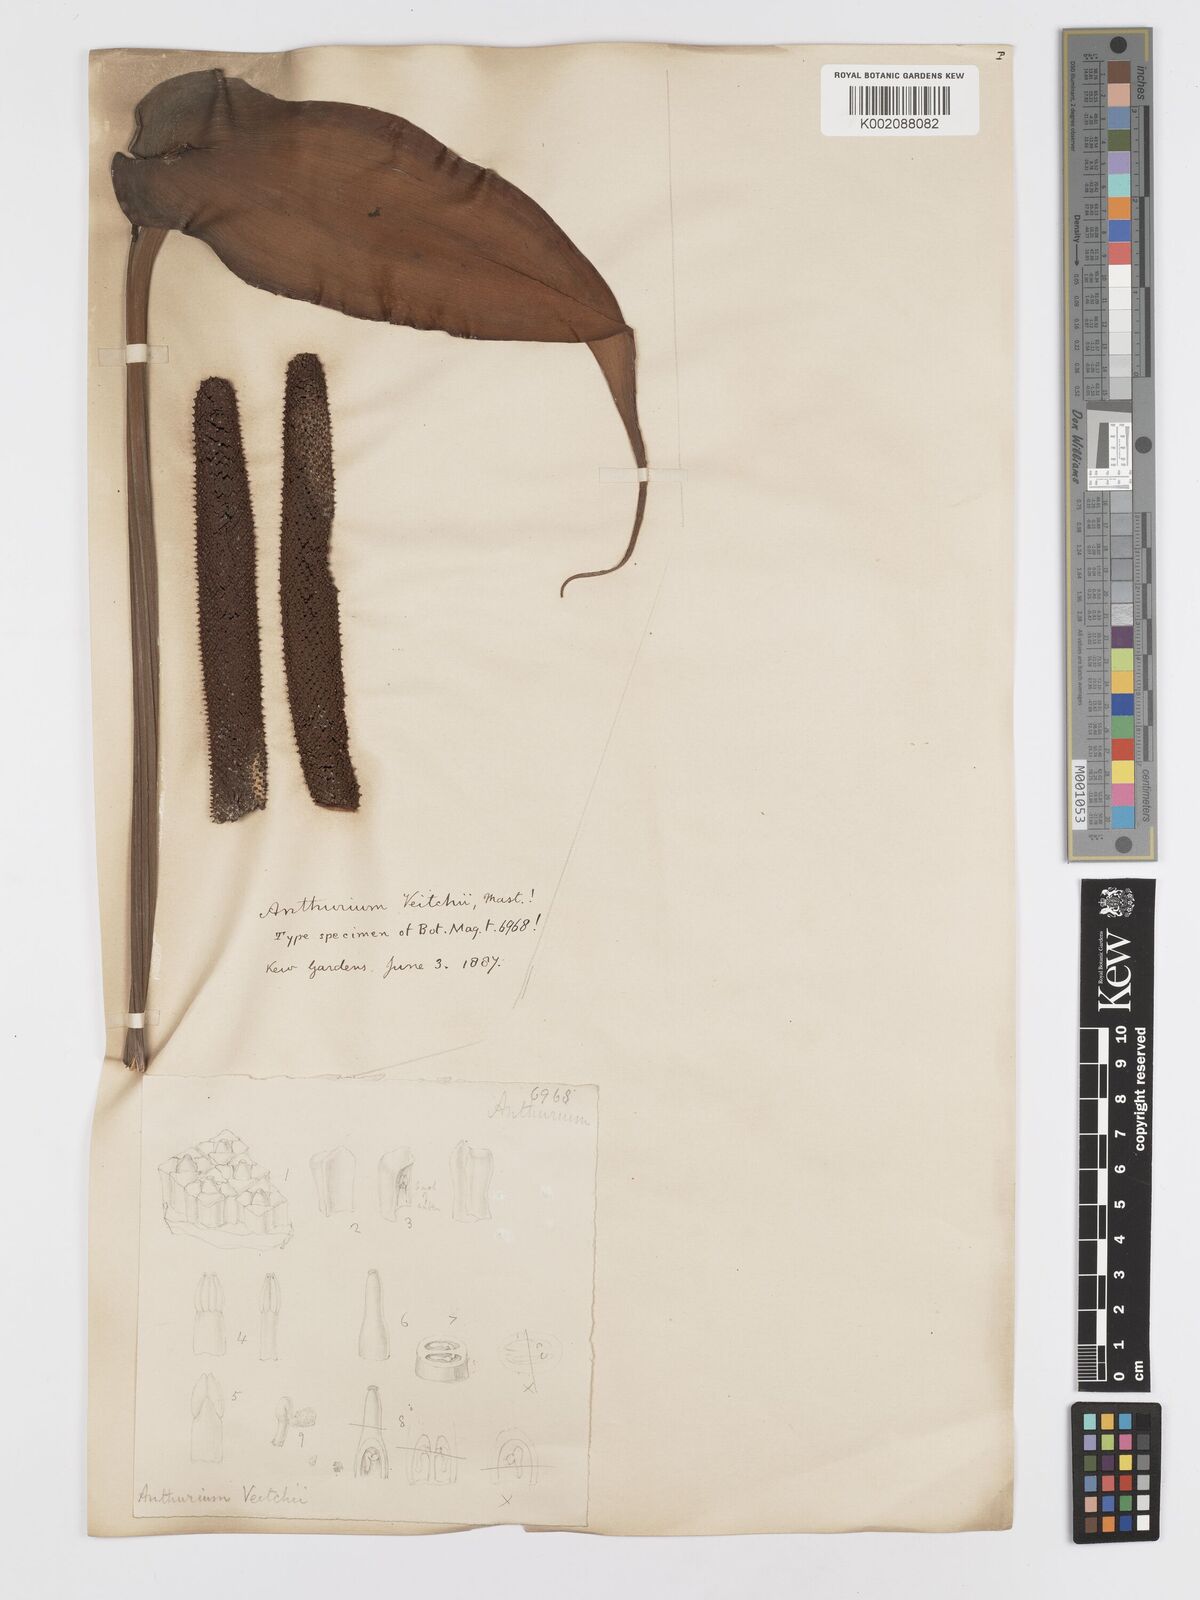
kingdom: Plantae
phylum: Tracheophyta
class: Liliopsida
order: Alismatales
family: Araceae
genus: Anthurium
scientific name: Anthurium veitchii
